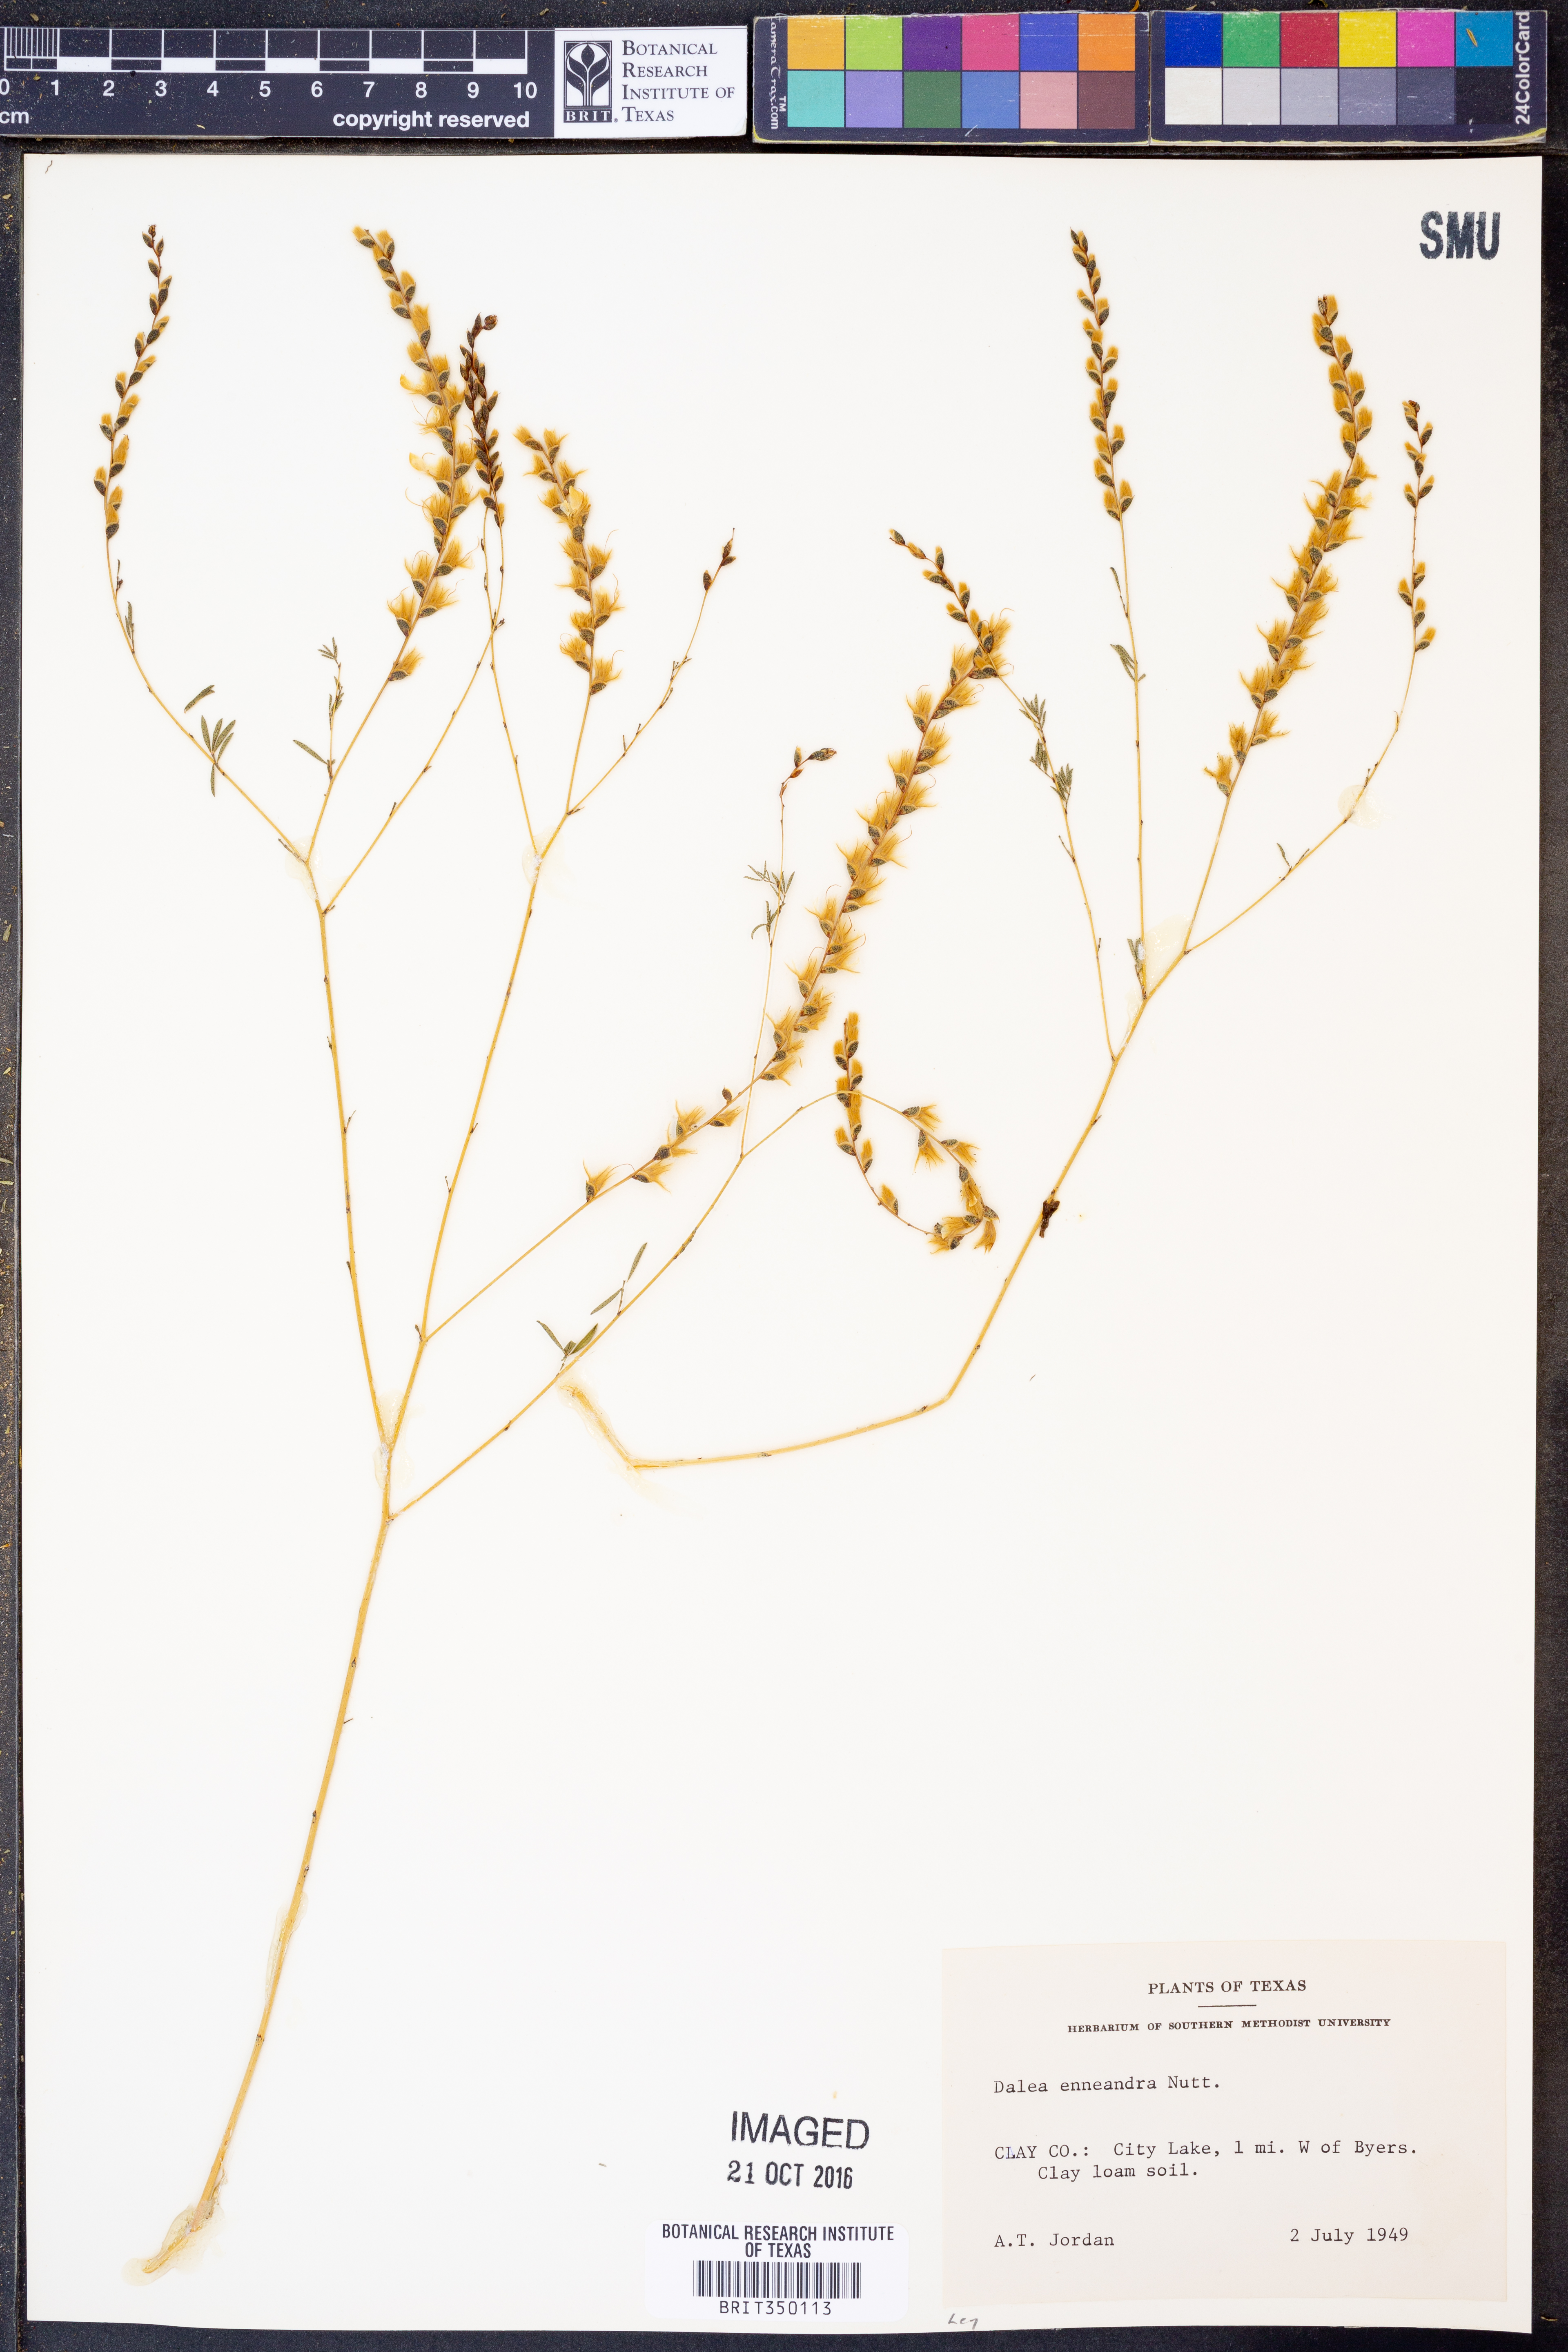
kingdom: Plantae
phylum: Tracheophyta
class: Magnoliopsida
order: Fabales
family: Fabaceae
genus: Dalea
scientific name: Dalea enneandra
